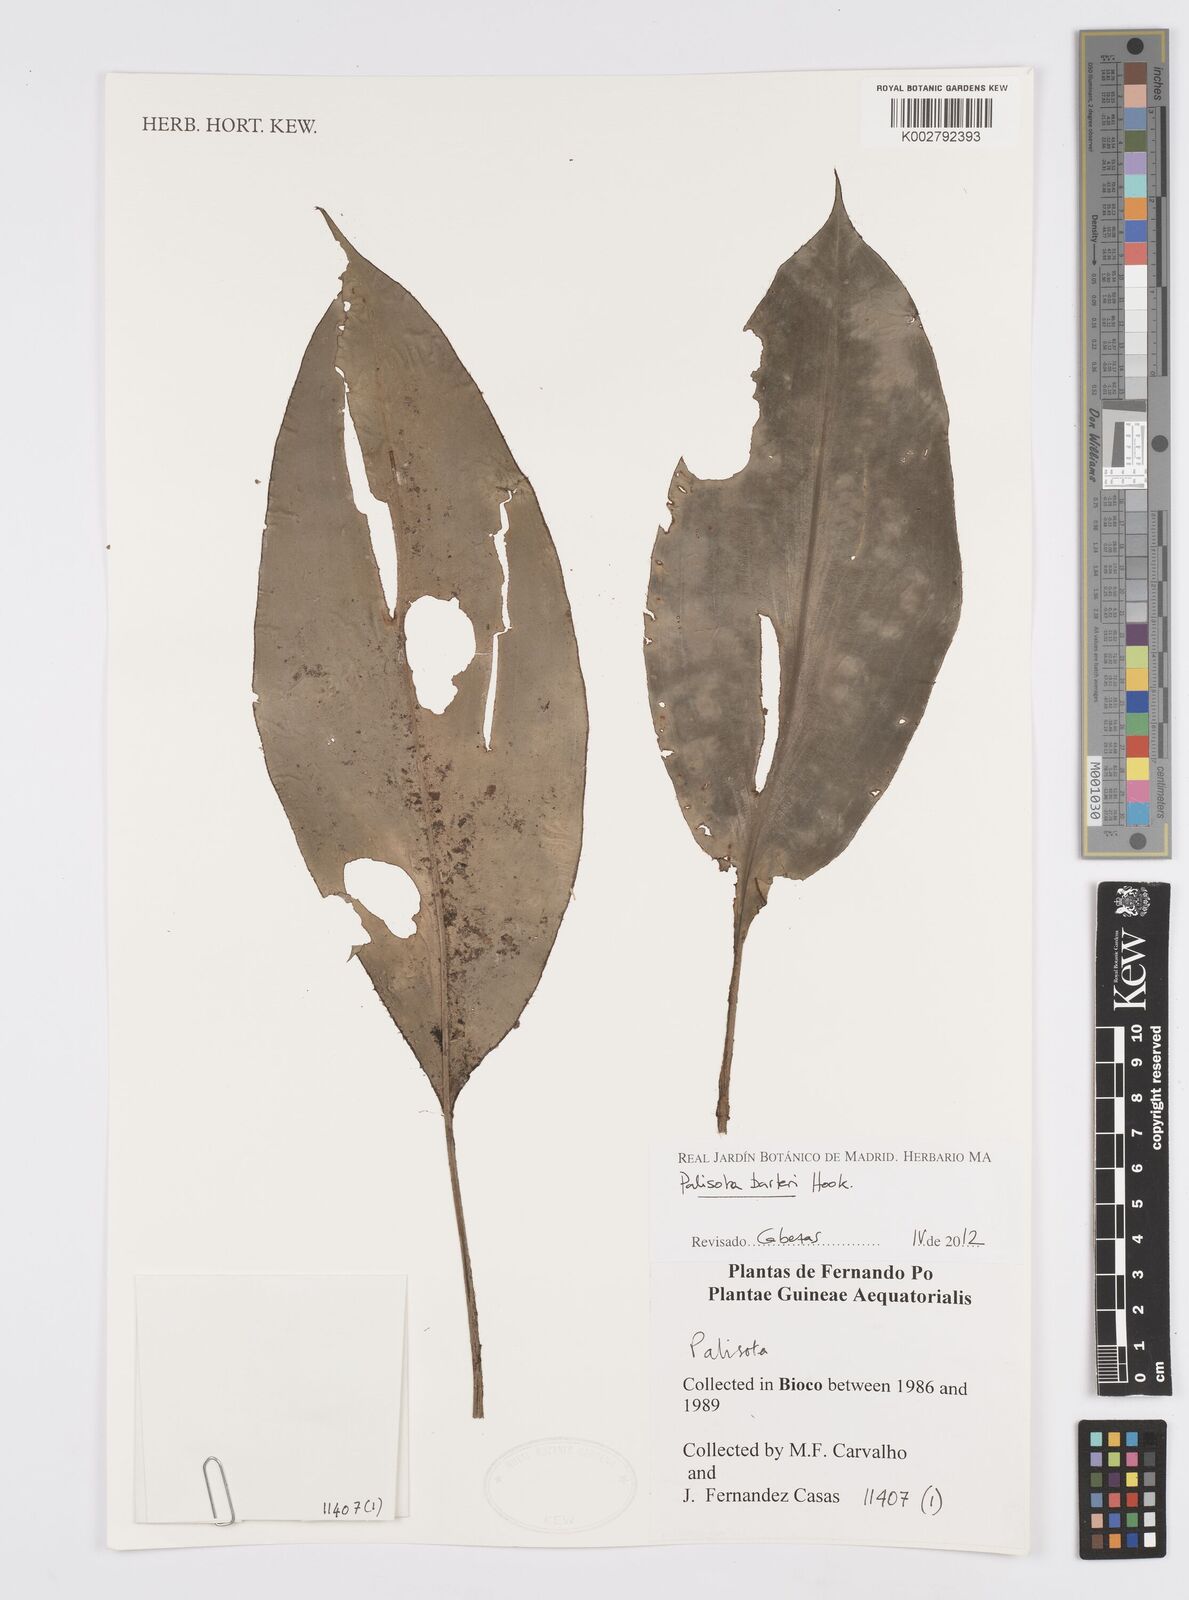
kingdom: Plantae
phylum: Tracheophyta
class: Liliopsida
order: Commelinales
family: Commelinaceae
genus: Palisota
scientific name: Palisota barteri
